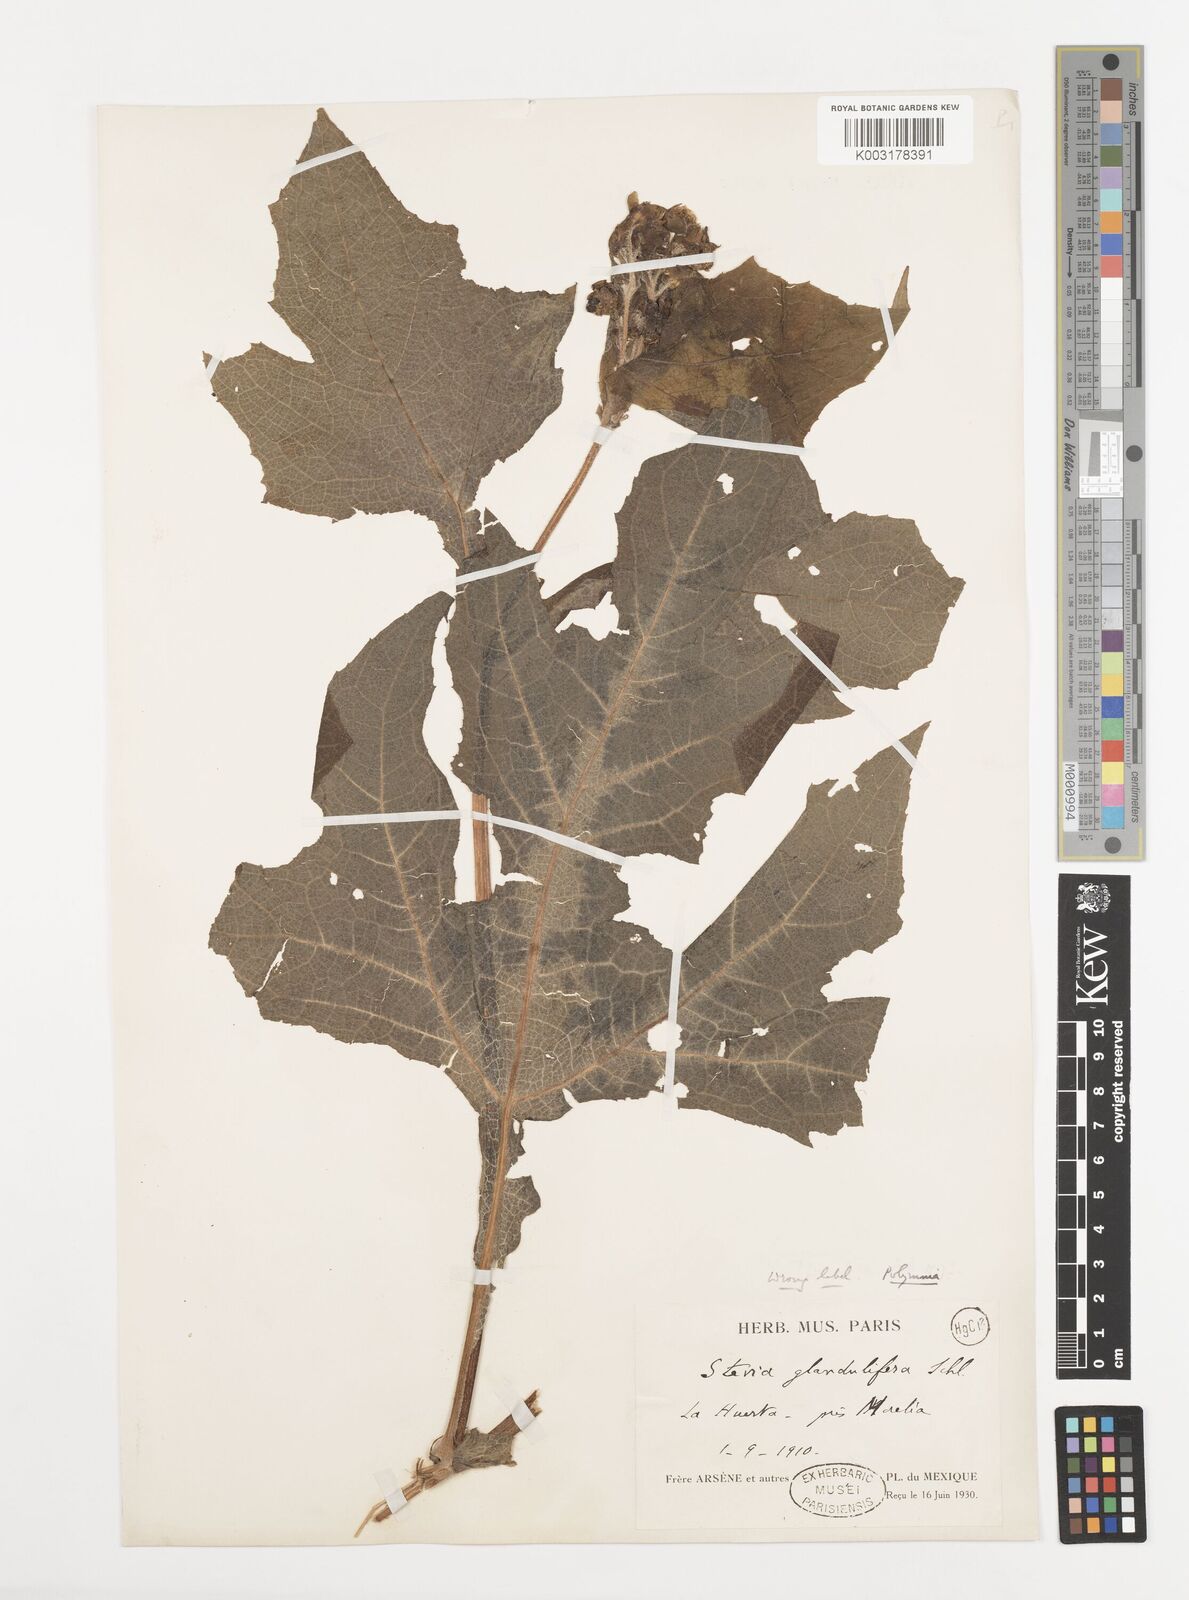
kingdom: Plantae
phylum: Tracheophyta
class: Magnoliopsida
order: Asterales
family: Asteraceae
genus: Smallanthus
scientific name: Smallanthus maculatus
